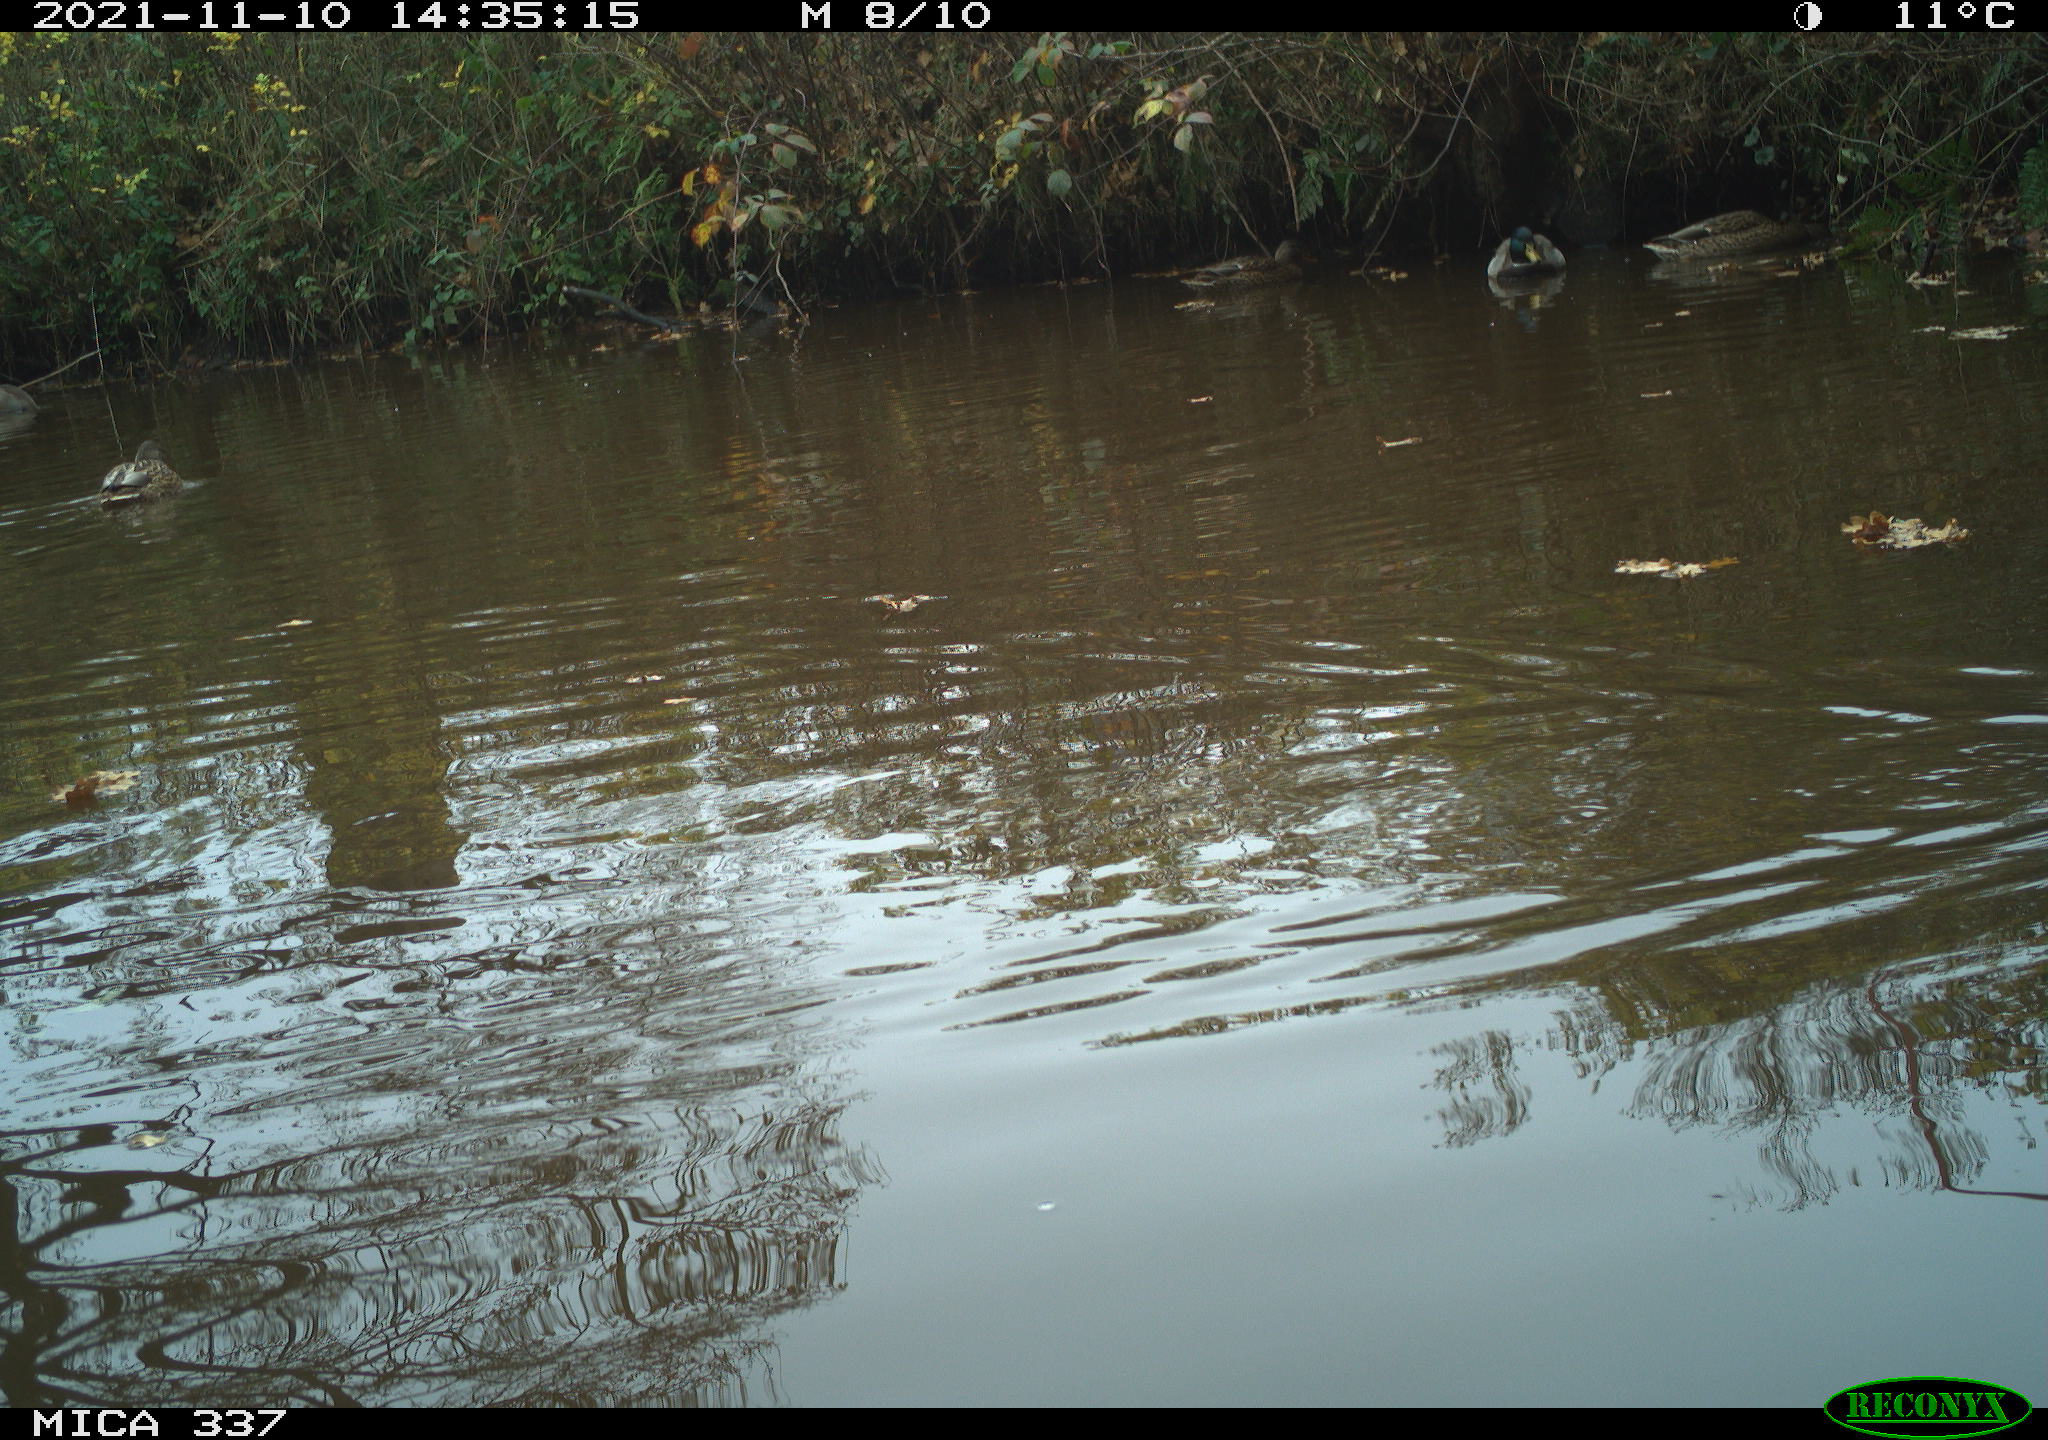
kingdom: Animalia
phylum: Chordata
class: Aves
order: Anseriformes
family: Anatidae
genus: Anas
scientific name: Anas platyrhynchos
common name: Mallard
